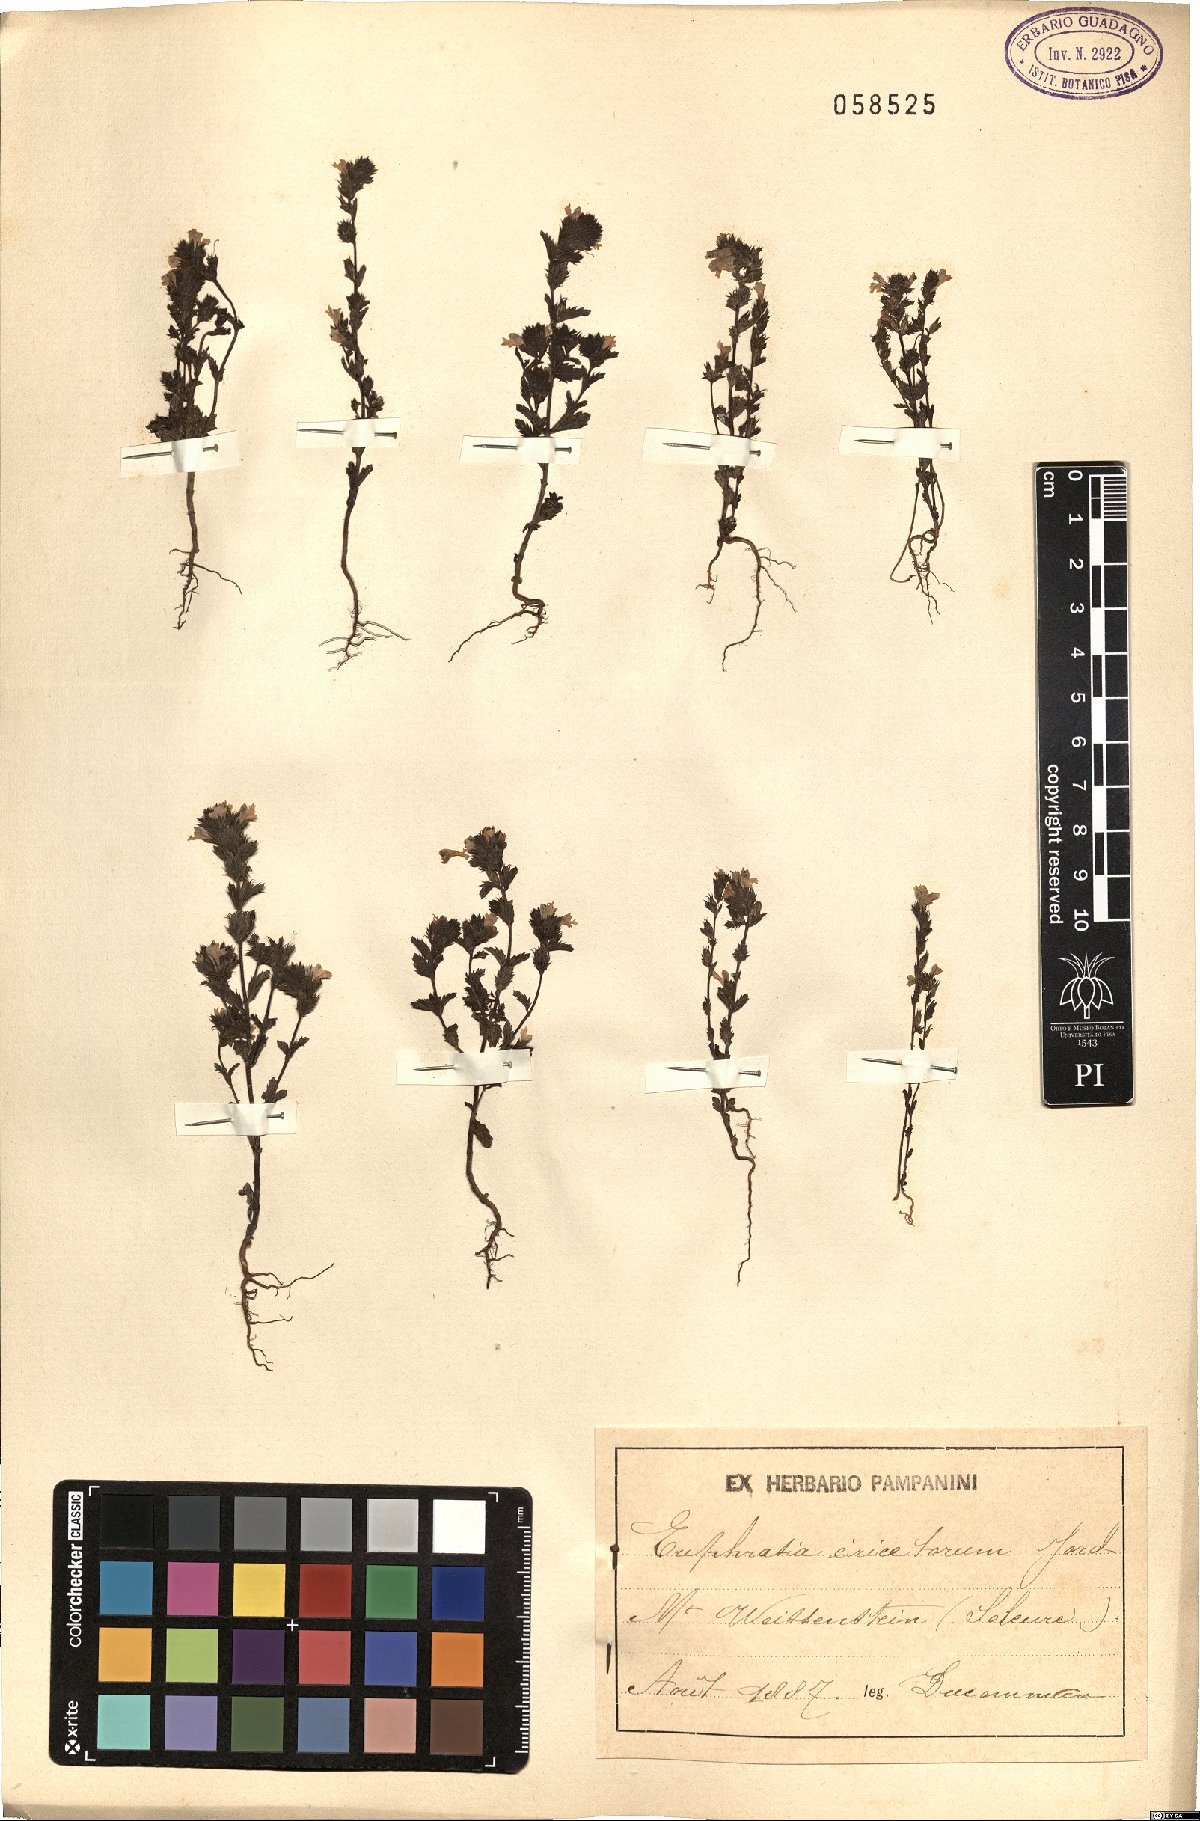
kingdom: Plantae
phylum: Tracheophyta
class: Magnoliopsida
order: Lamiales
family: Orobanchaceae
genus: Euphrasia
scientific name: Euphrasia stricta
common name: Drug eyebright
